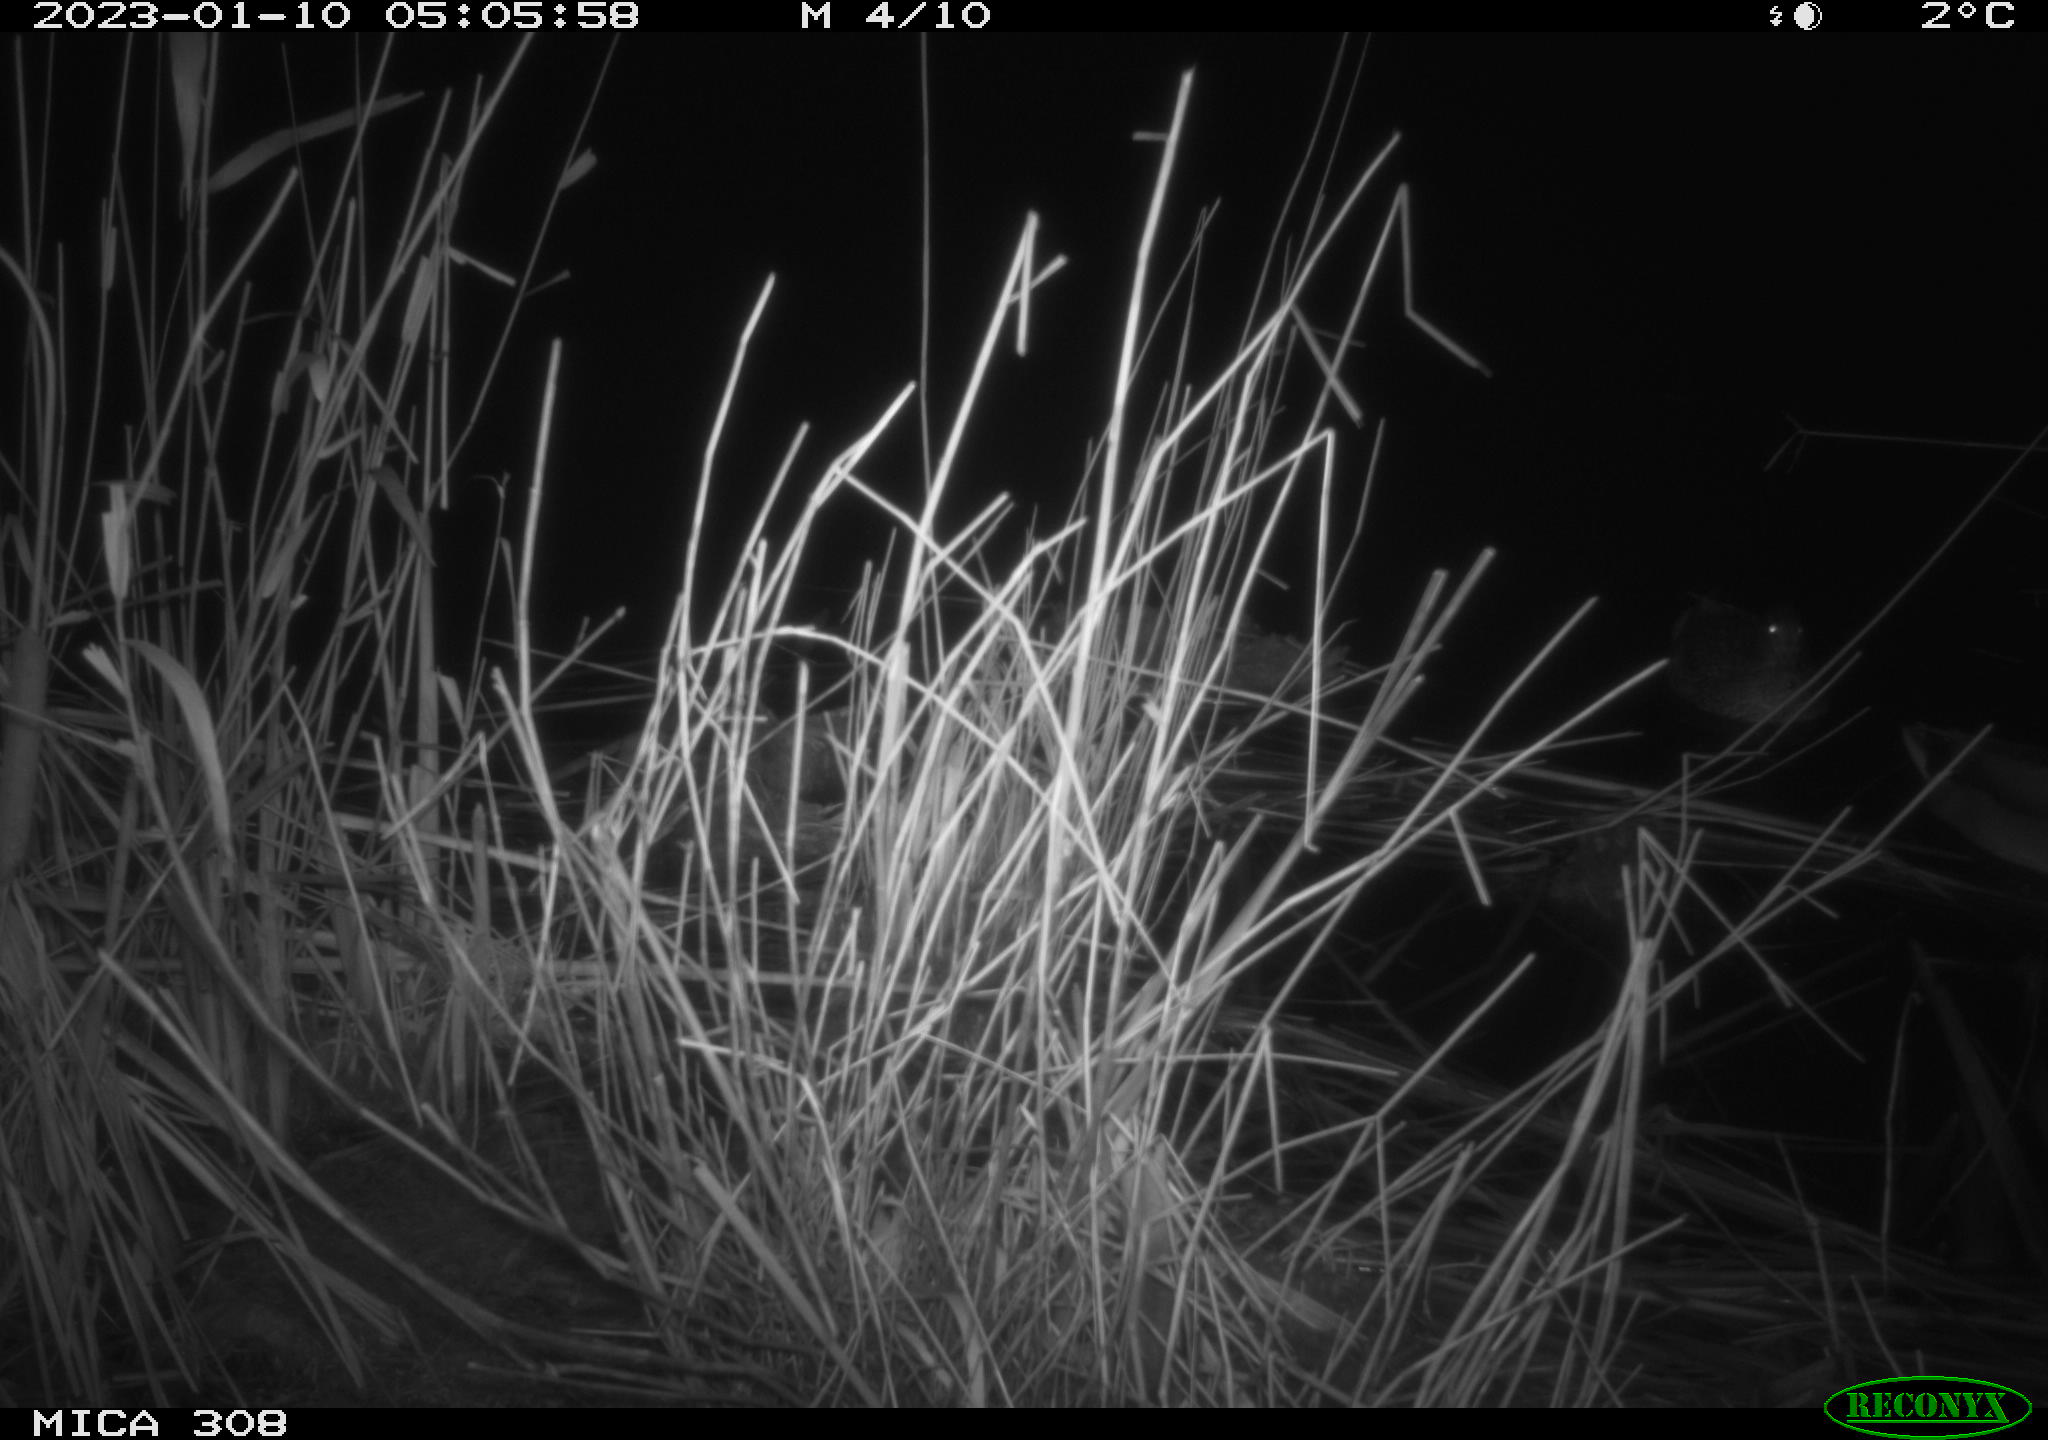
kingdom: Animalia
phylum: Chordata
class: Aves
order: Anseriformes
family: Anatidae
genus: Anas
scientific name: Anas
